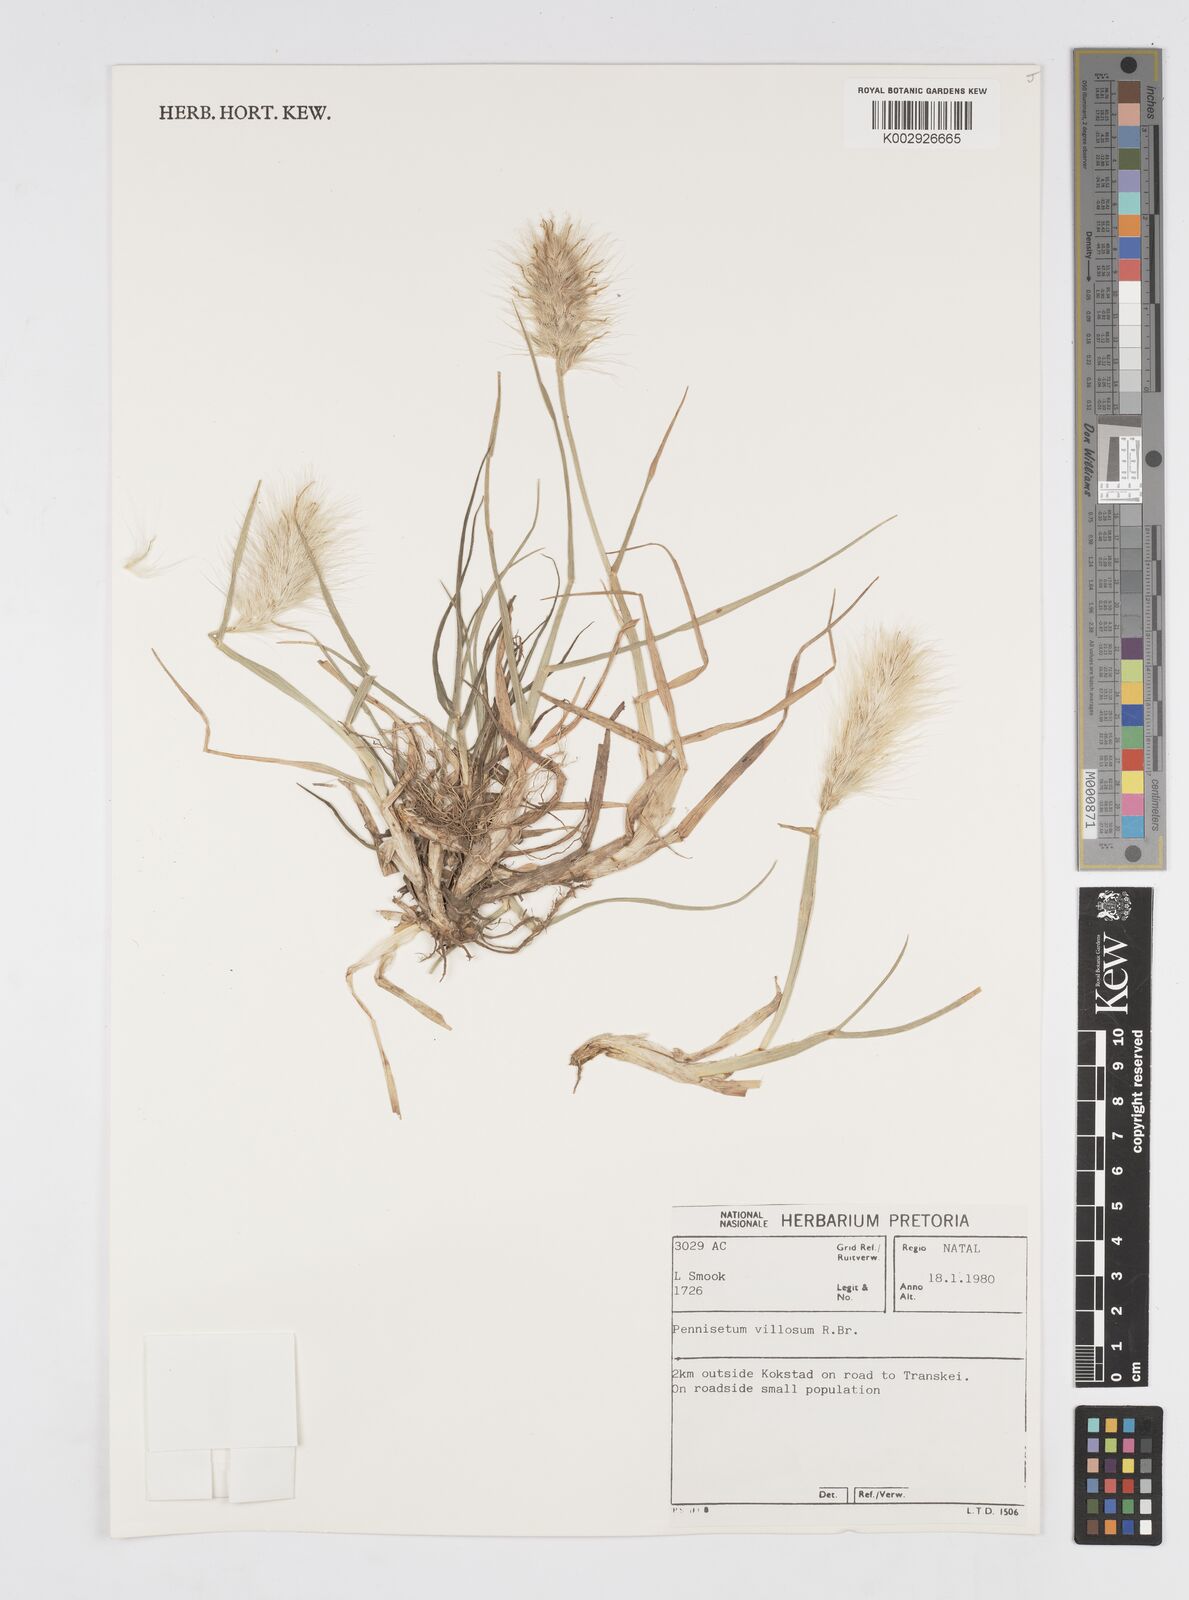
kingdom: Plantae
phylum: Tracheophyta
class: Liliopsida
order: Poales
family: Poaceae
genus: Cenchrus
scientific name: Cenchrus longisetus
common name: Feathertop
